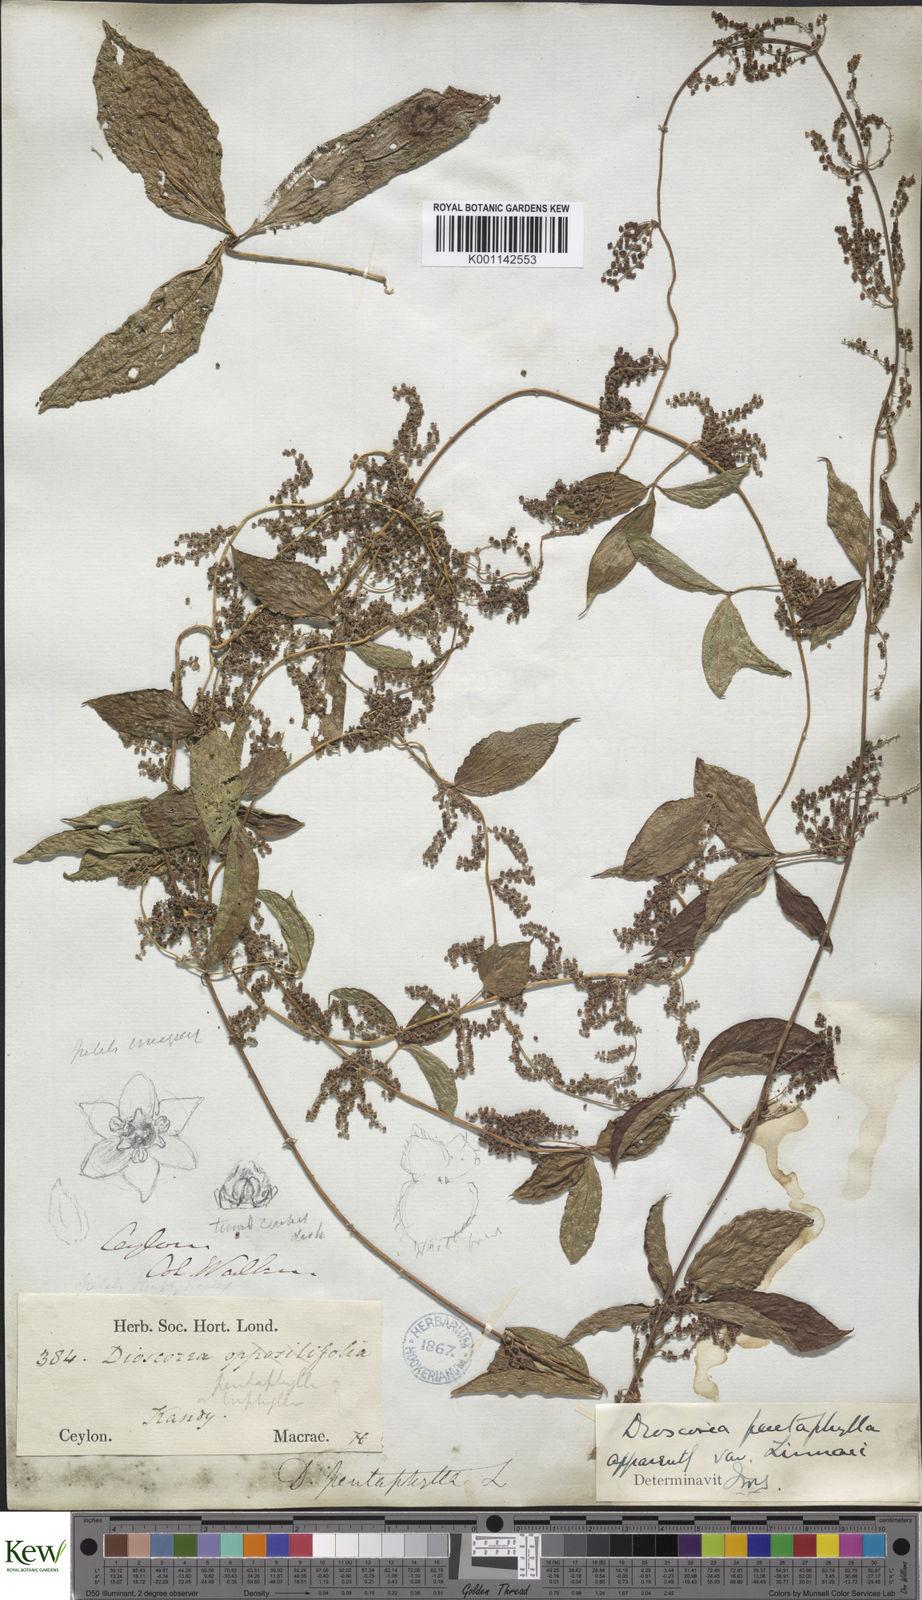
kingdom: Plantae
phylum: Tracheophyta
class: Liliopsida
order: Dioscoreales
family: Dioscoreaceae
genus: Dioscorea
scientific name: Dioscorea pentaphylla
